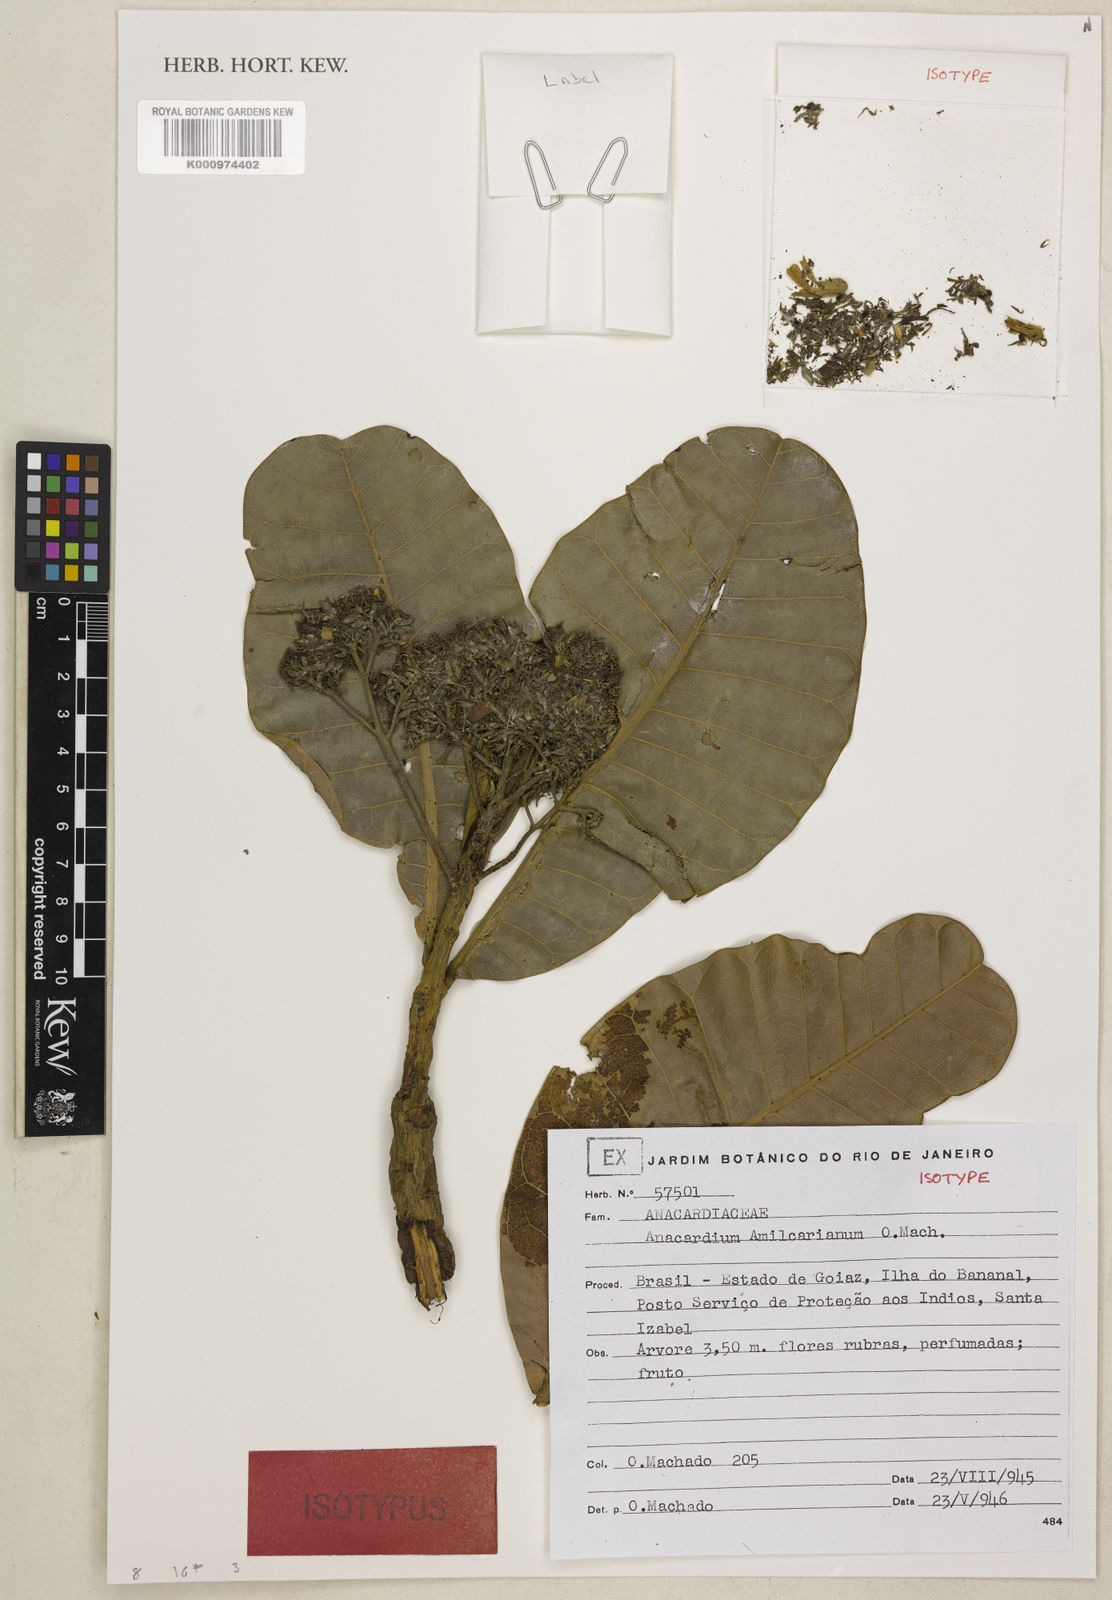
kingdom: Plantae
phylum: Tracheophyta
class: Magnoliopsida
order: Sapindales
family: Anacardiaceae
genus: Anacardium
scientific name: Anacardium occidentale
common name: Cashew
